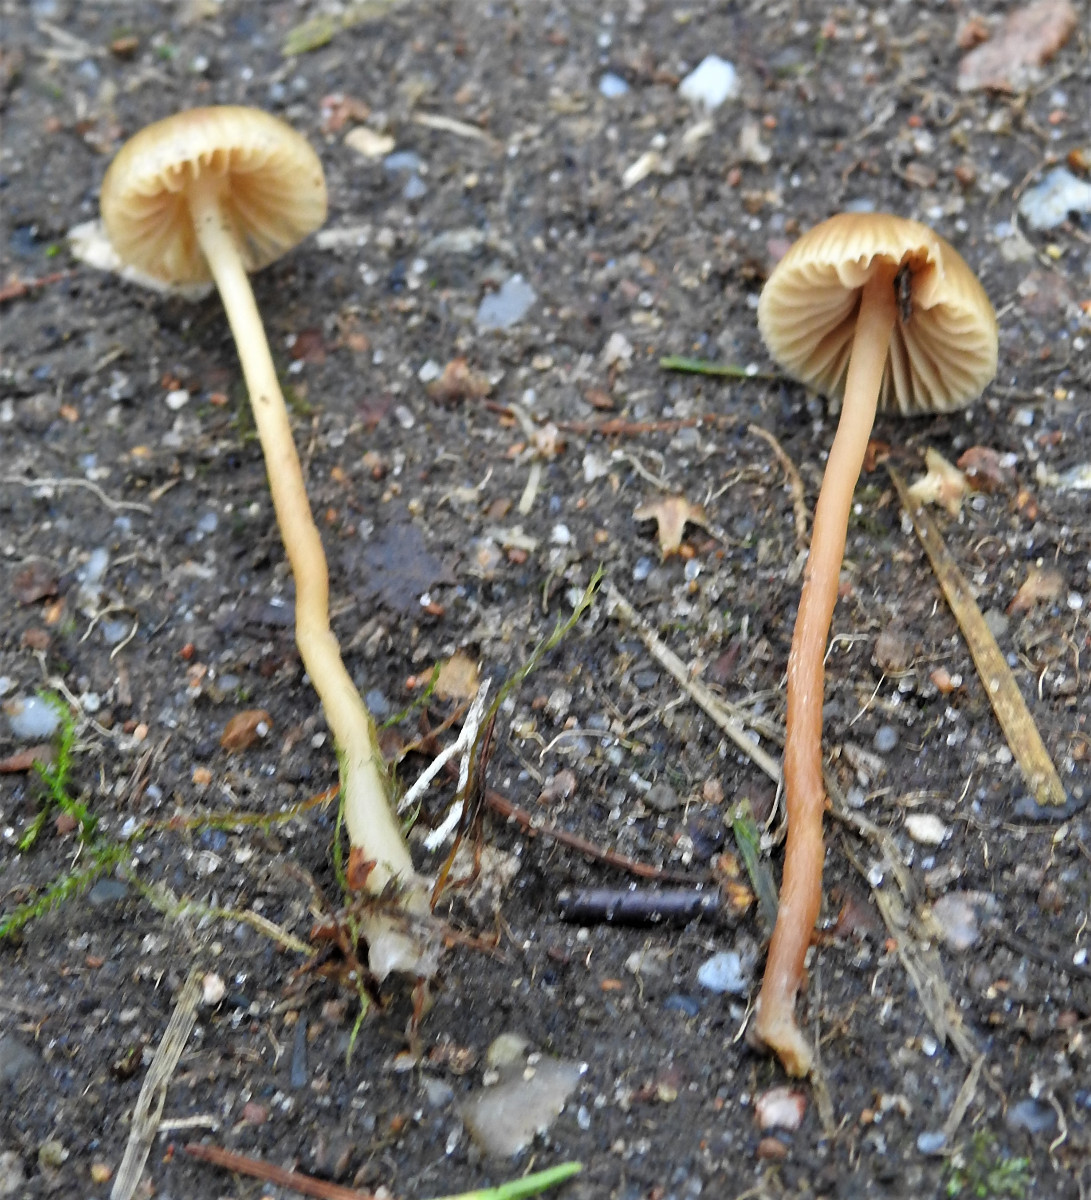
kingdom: Fungi
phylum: Basidiomycota
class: Agaricomycetes
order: Agaricales
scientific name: Agaricales
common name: champignonordenen
